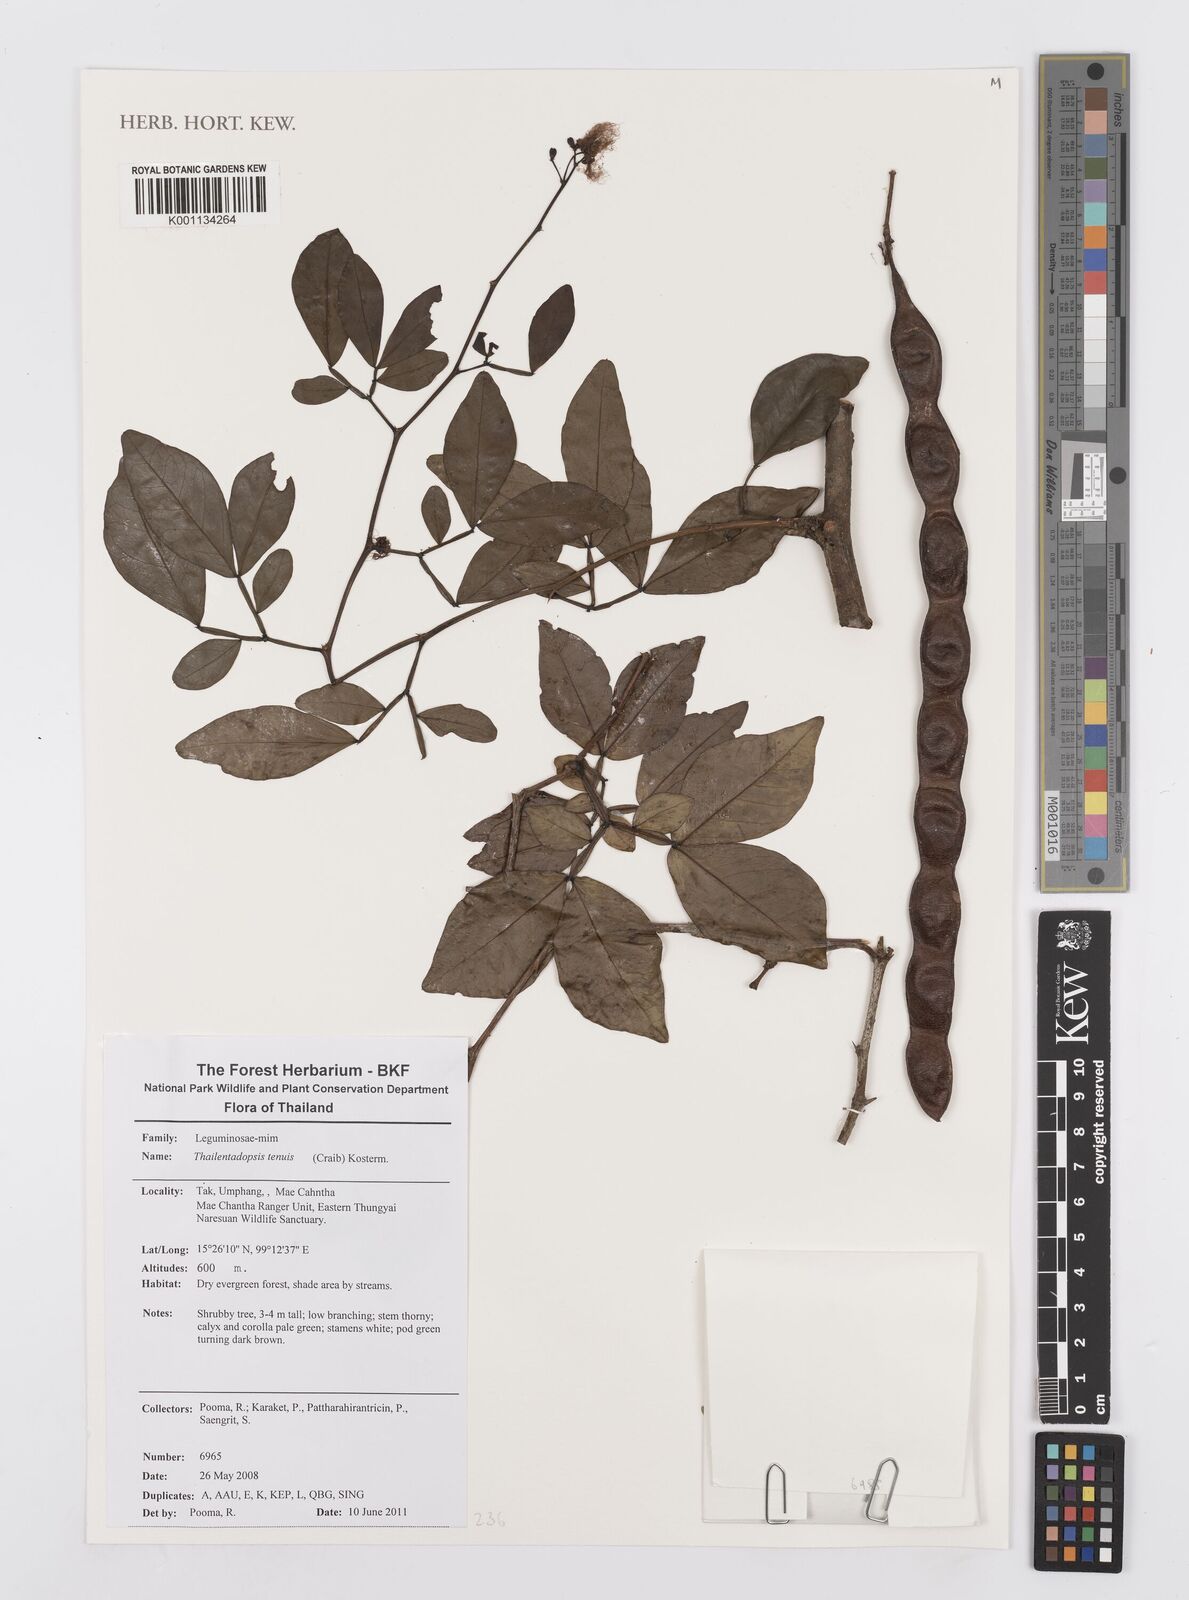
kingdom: Plantae
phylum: Tracheophyta
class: Magnoliopsida
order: Fabales
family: Fabaceae
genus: Thailentadopsis
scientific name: Thailentadopsis tenuis
